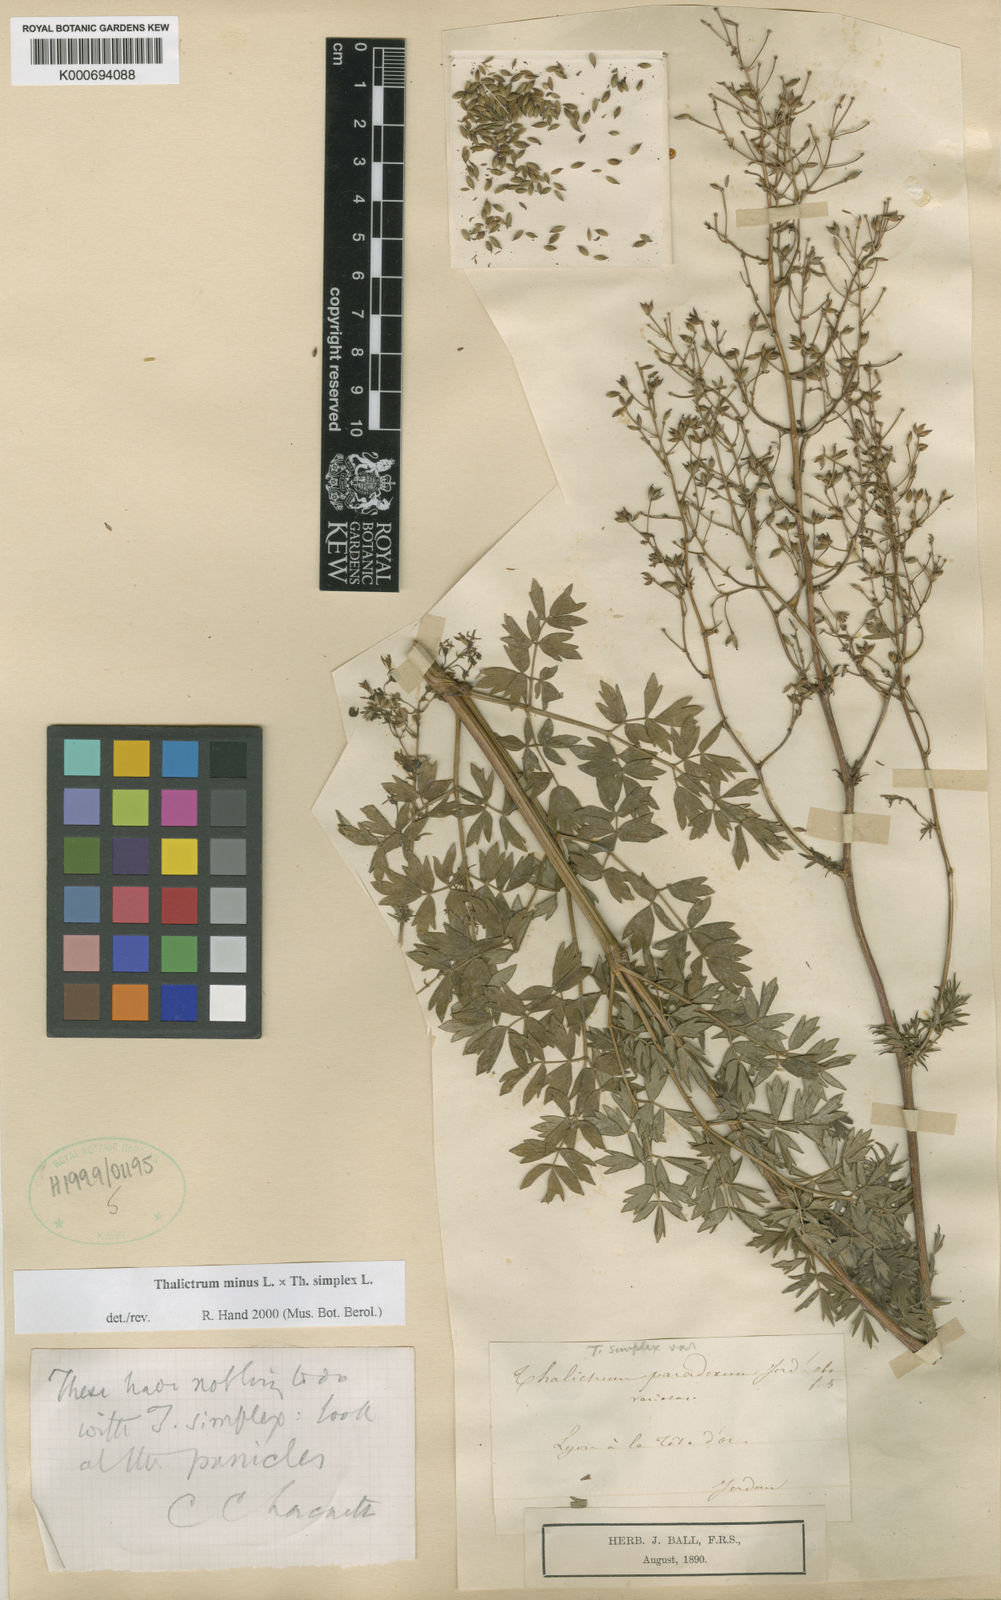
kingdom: Plantae
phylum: Tracheophyta
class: Magnoliopsida
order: Ranunculales
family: Ranunculaceae
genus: Thalictrum
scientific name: Thalictrum minus
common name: Lesser meadow-rue
